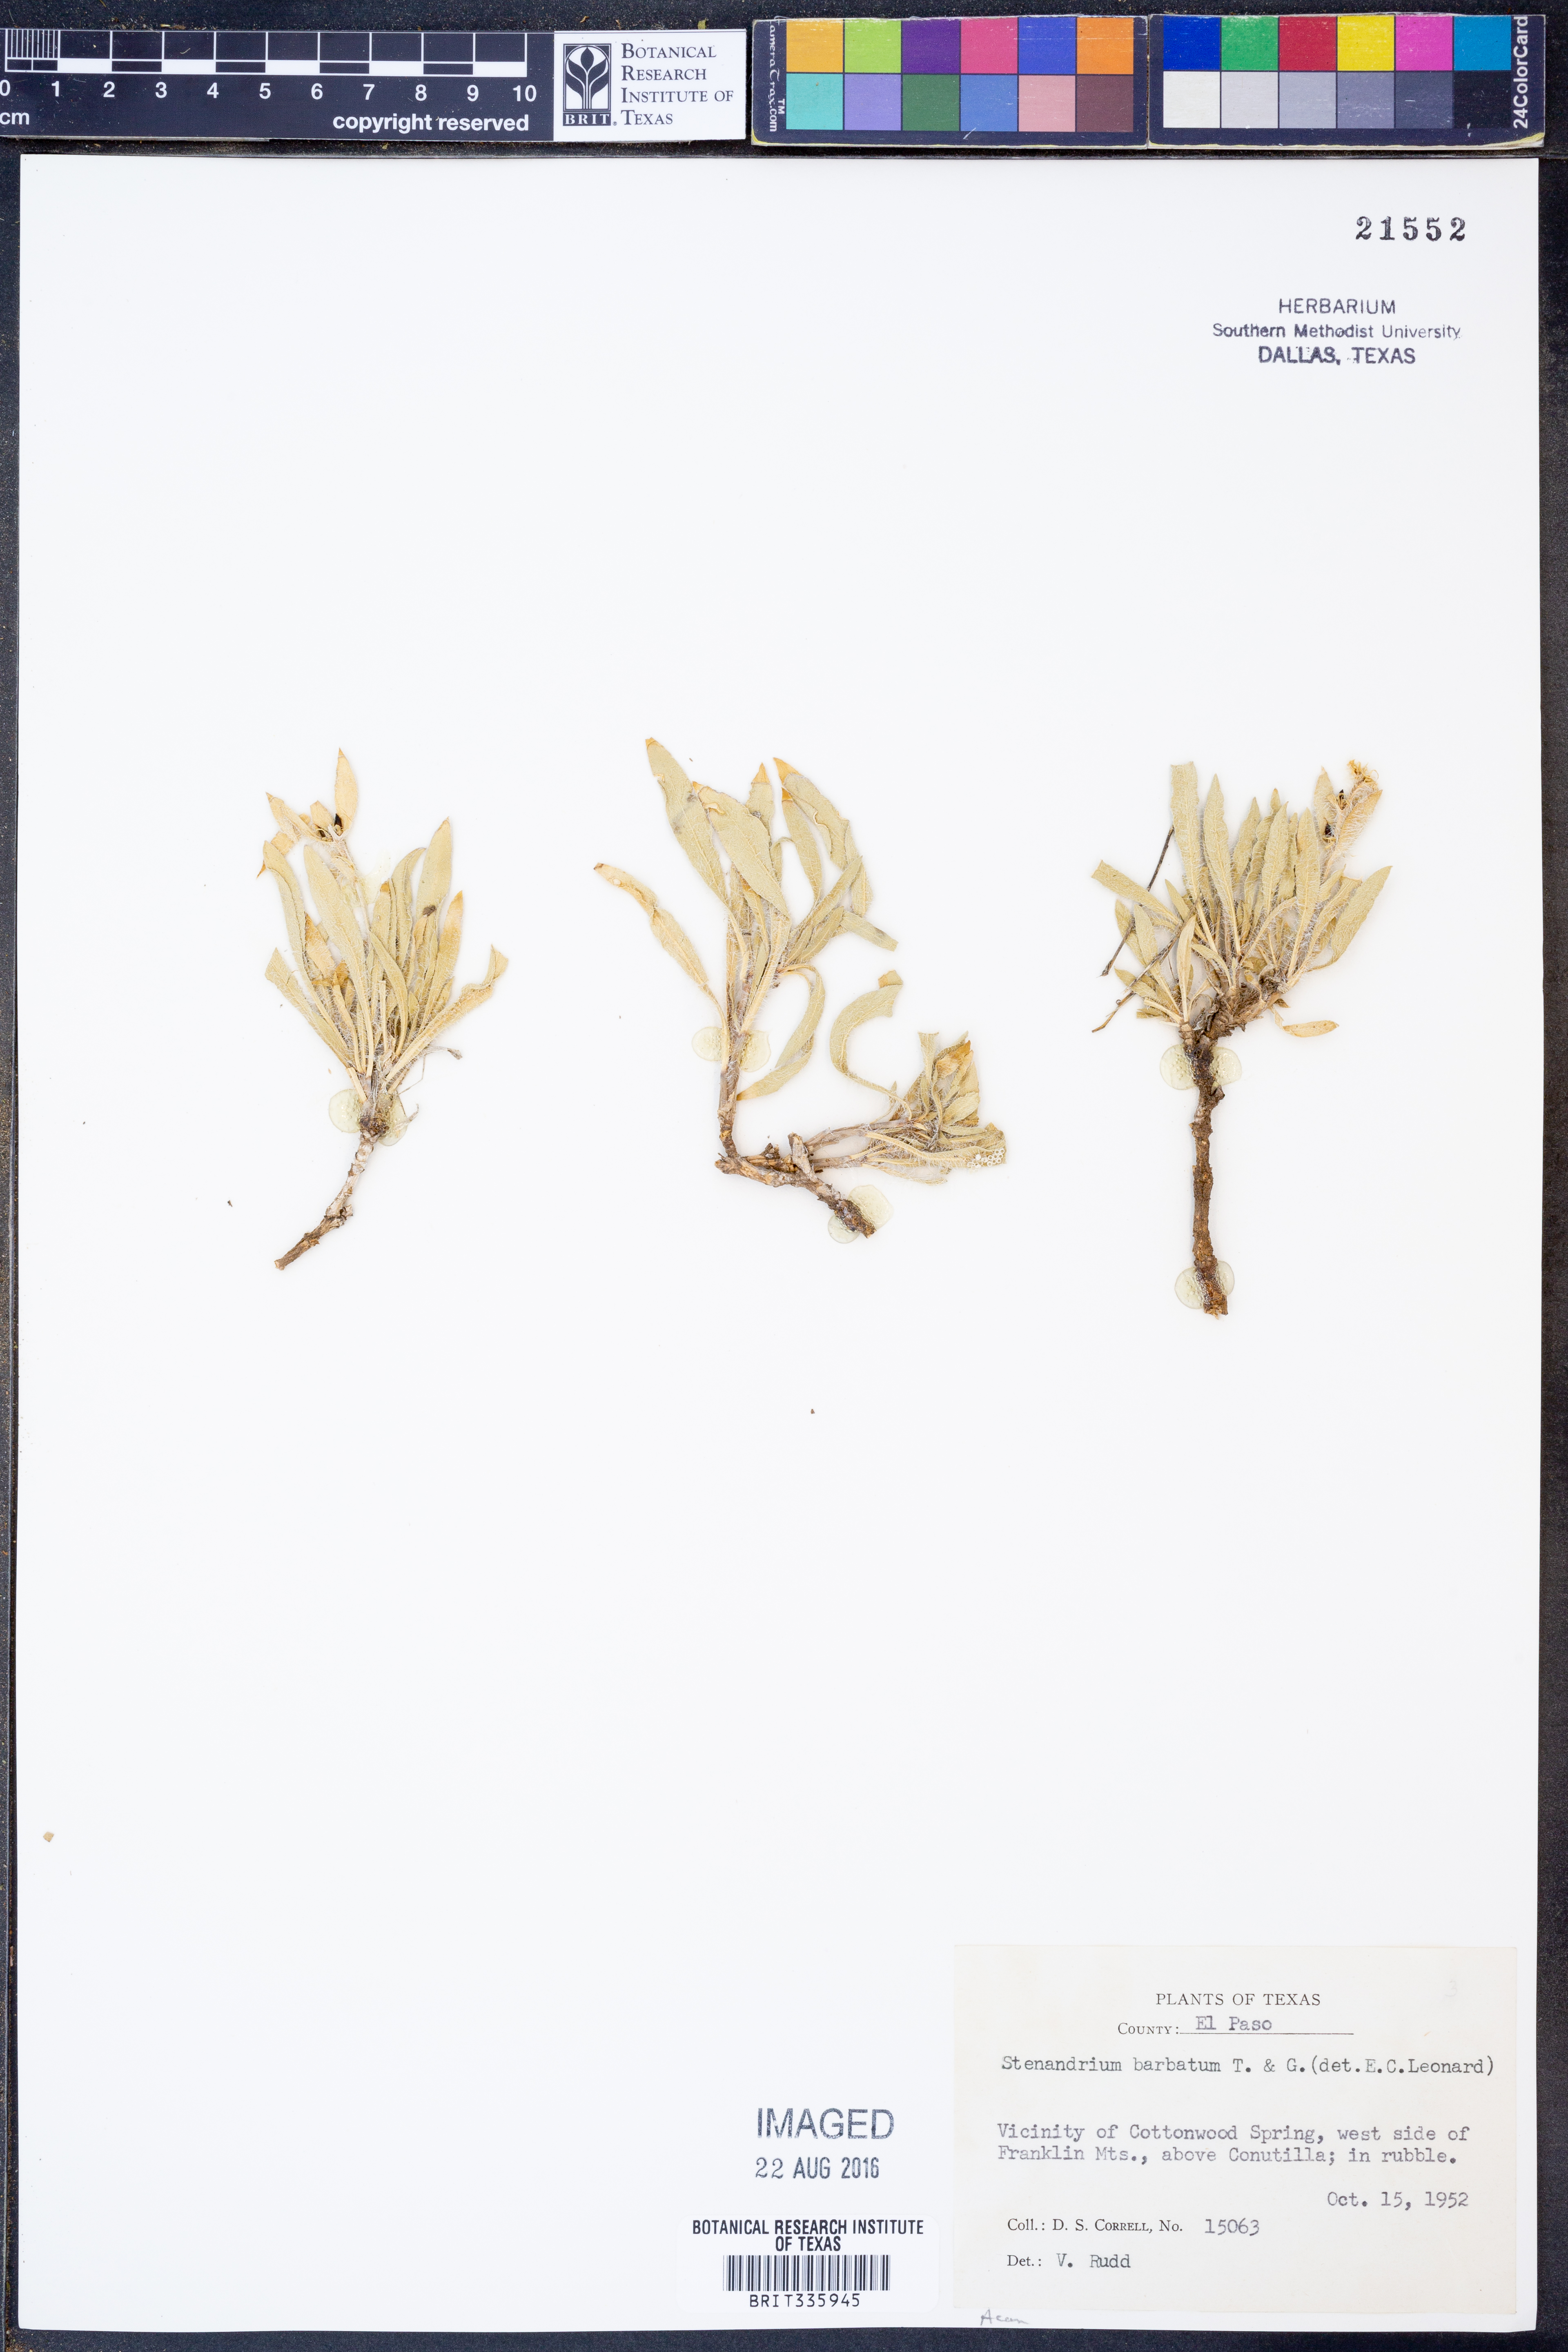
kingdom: Plantae
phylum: Tracheophyta
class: Magnoliopsida
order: Lamiales
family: Acanthaceae
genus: Stenandrium
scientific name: Stenandrium barbatum
